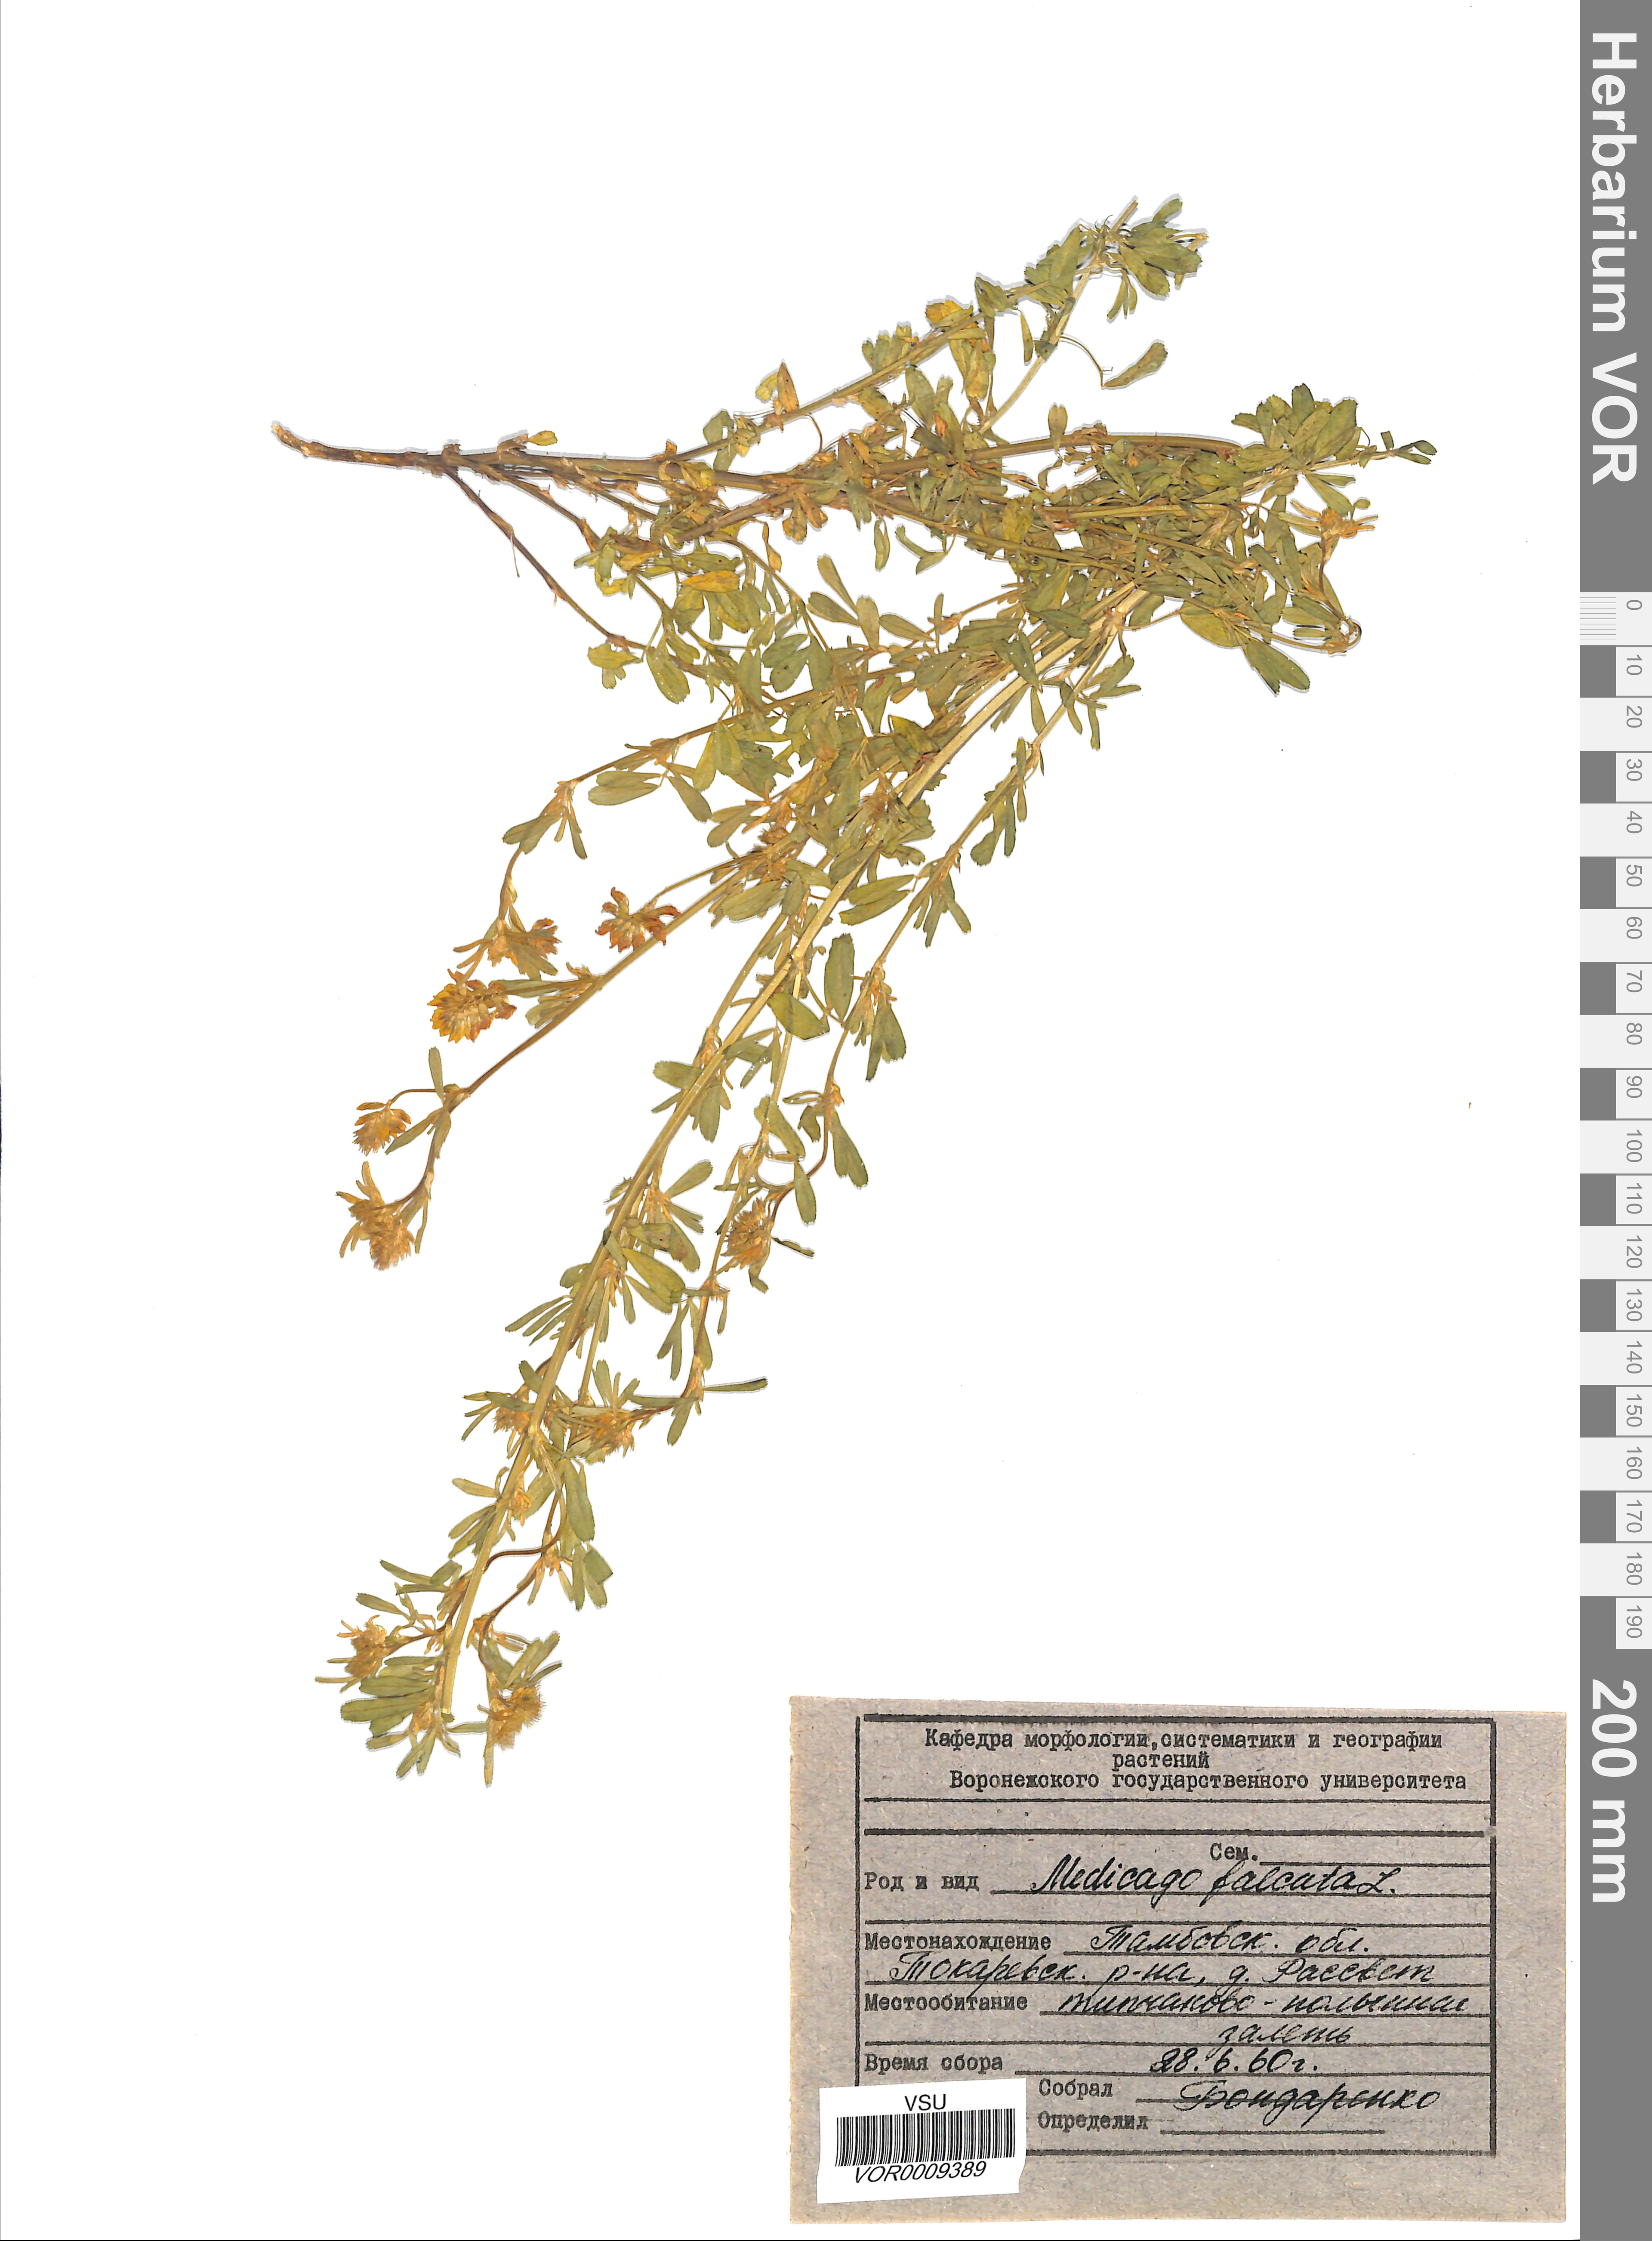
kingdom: Plantae
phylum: Tracheophyta
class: Magnoliopsida
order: Fabales
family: Fabaceae
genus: Medicago
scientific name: Medicago falcata
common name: Sickle medick
